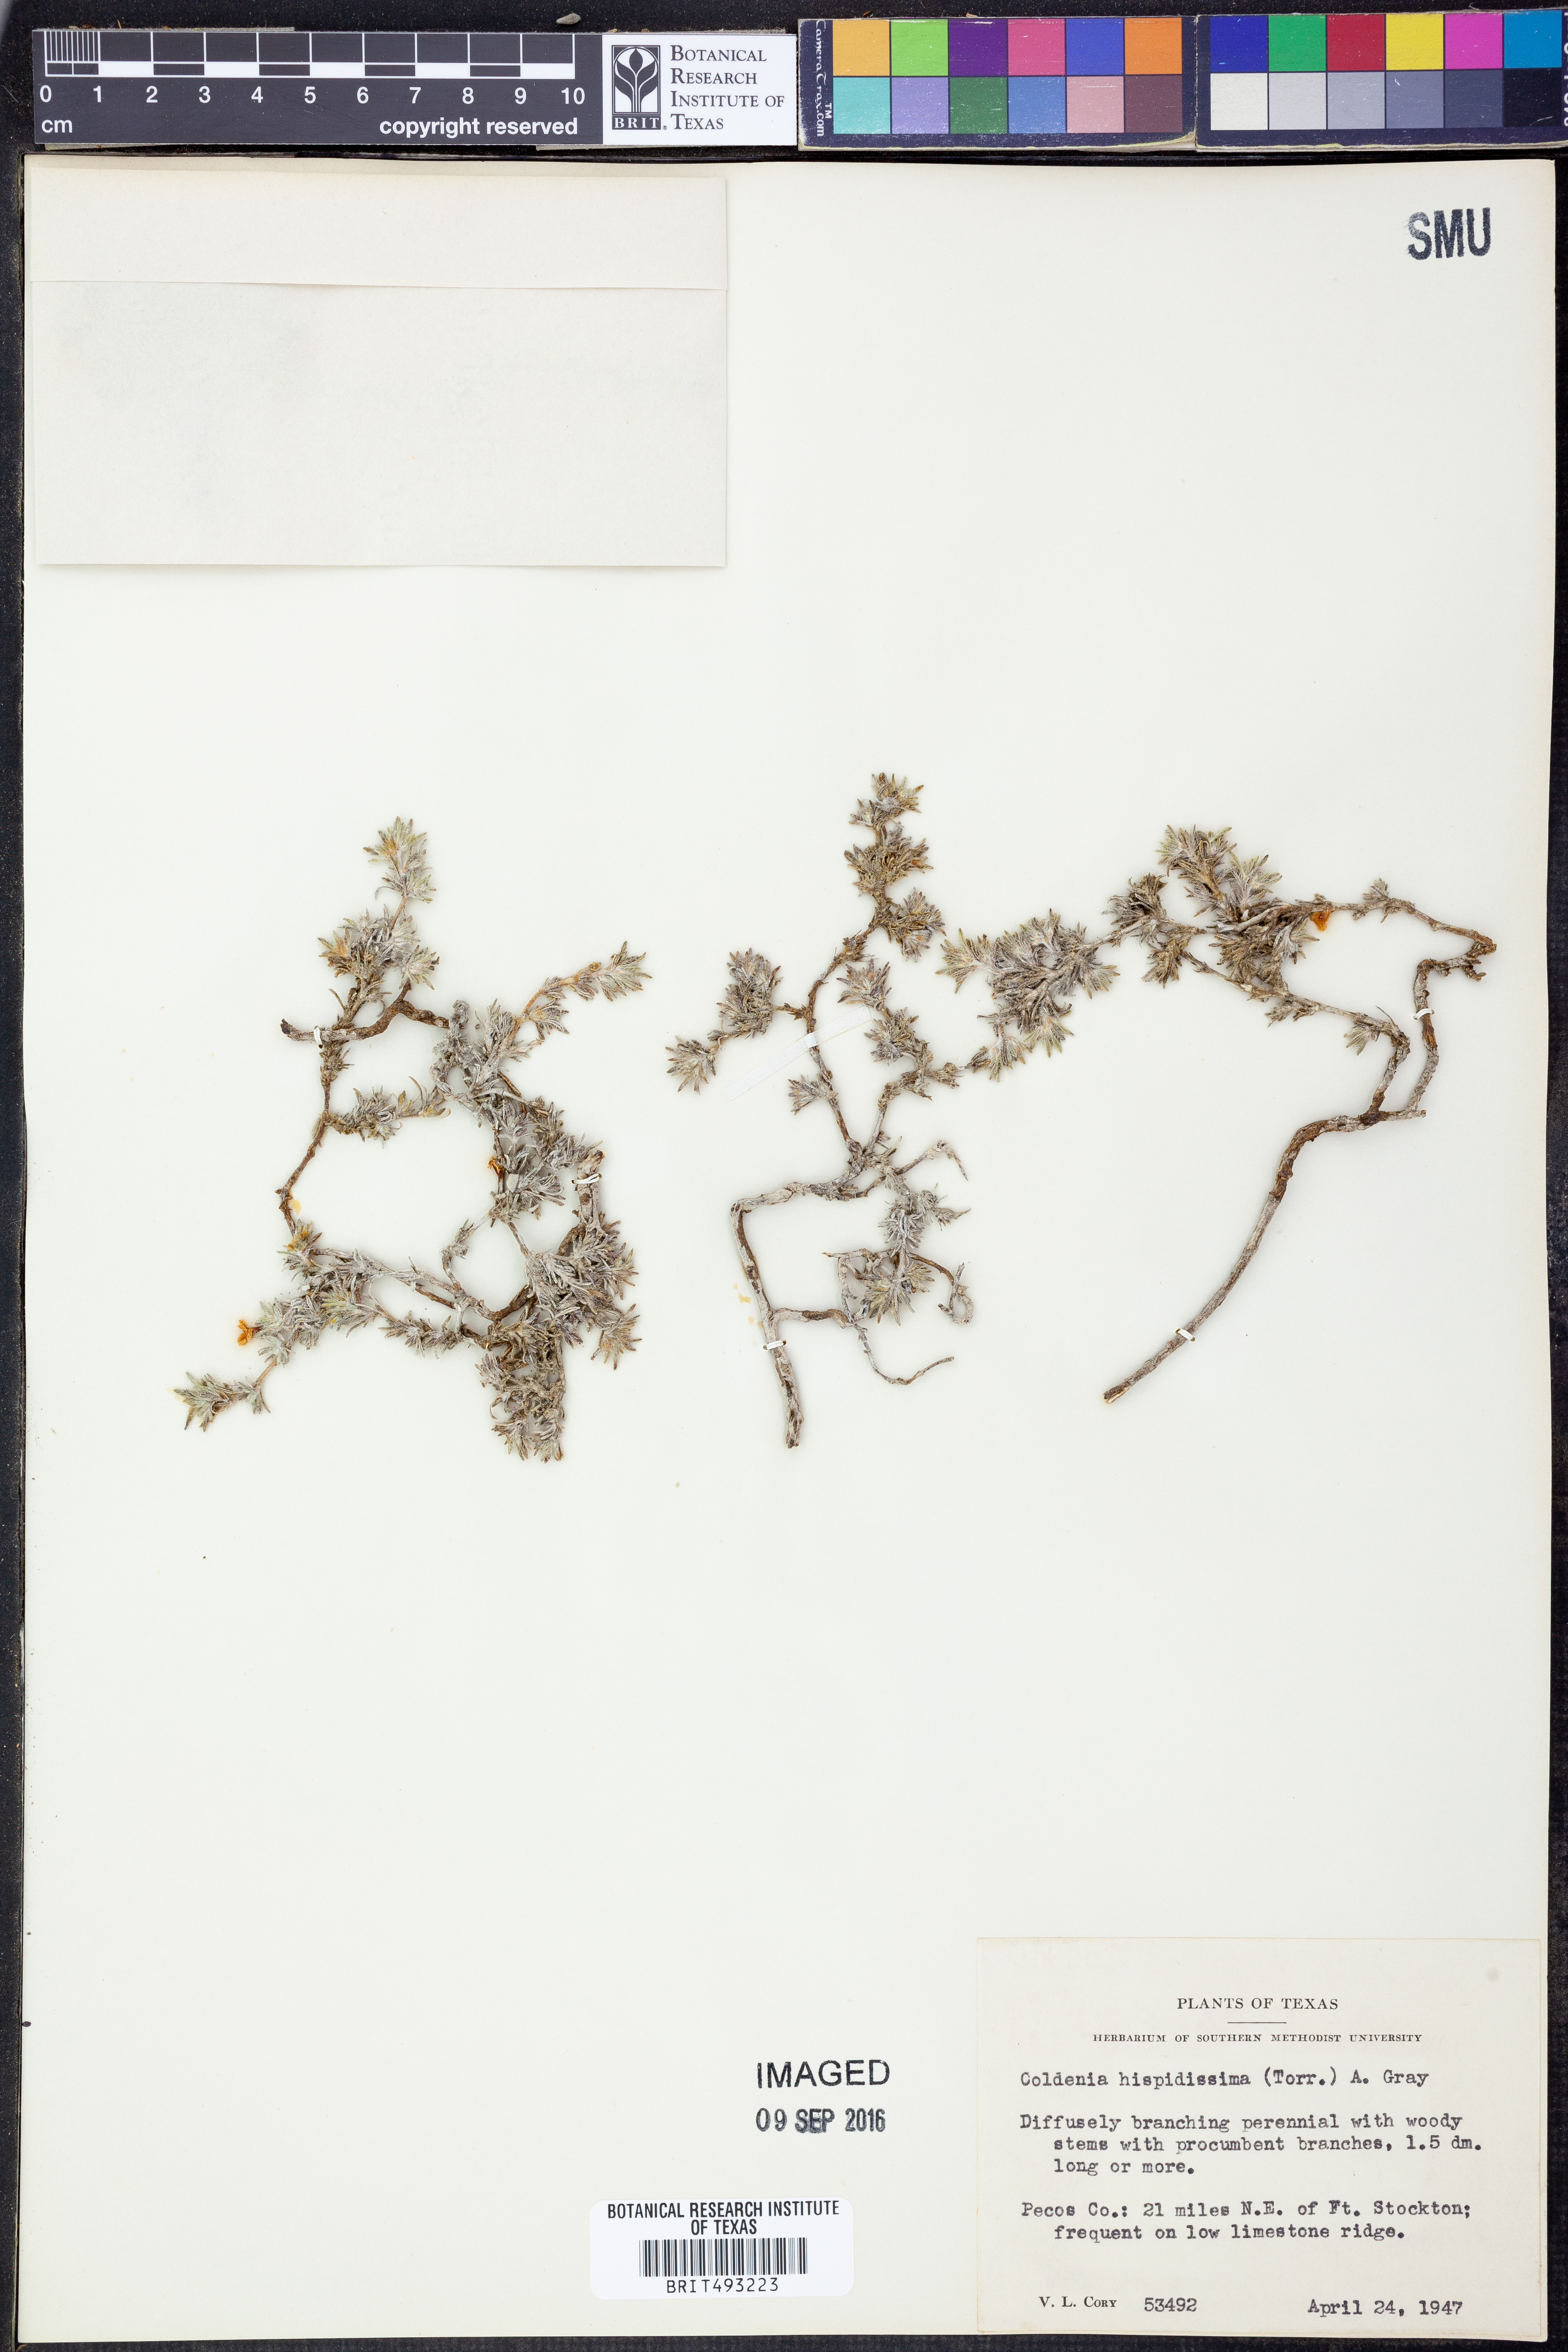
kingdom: Plantae
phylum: Tracheophyta
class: Magnoliopsida
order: Boraginales
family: Ehretiaceae
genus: Tiquilia
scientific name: Tiquilia hispidissima
